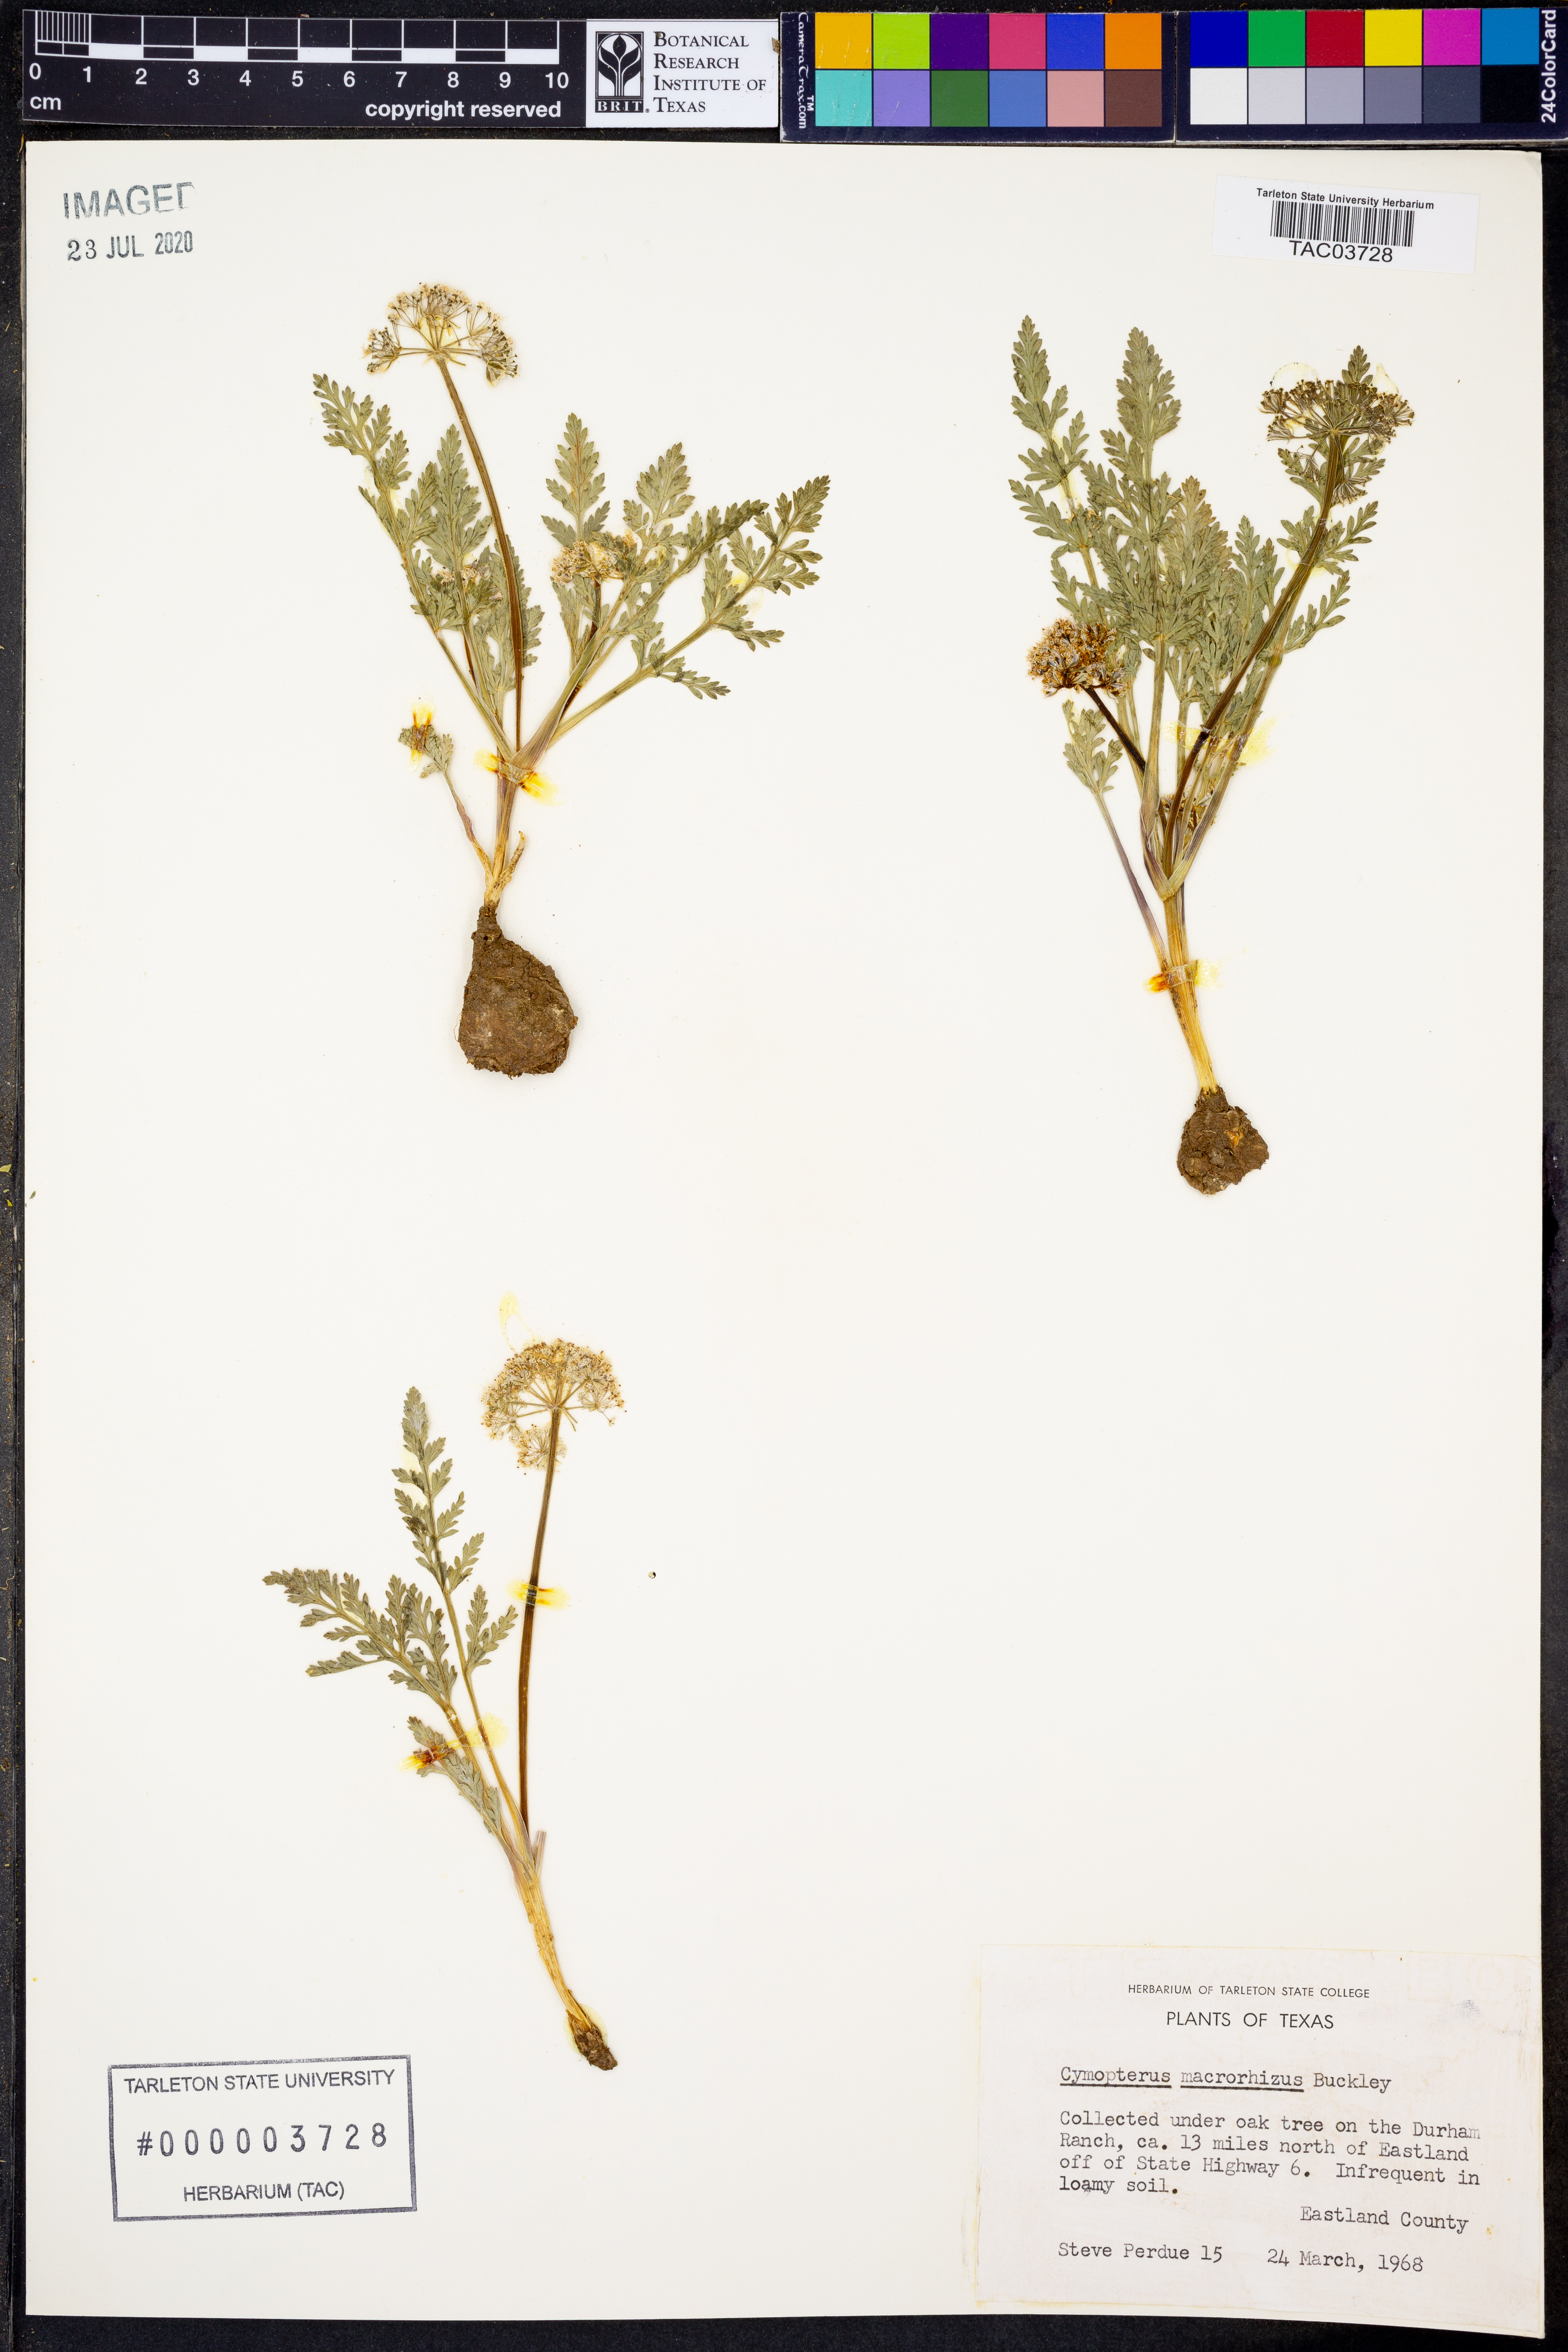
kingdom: Plantae
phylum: Tracheophyta
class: Magnoliopsida
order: Apiales
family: Apiaceae
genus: Vesper
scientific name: Vesper macrorhizus
